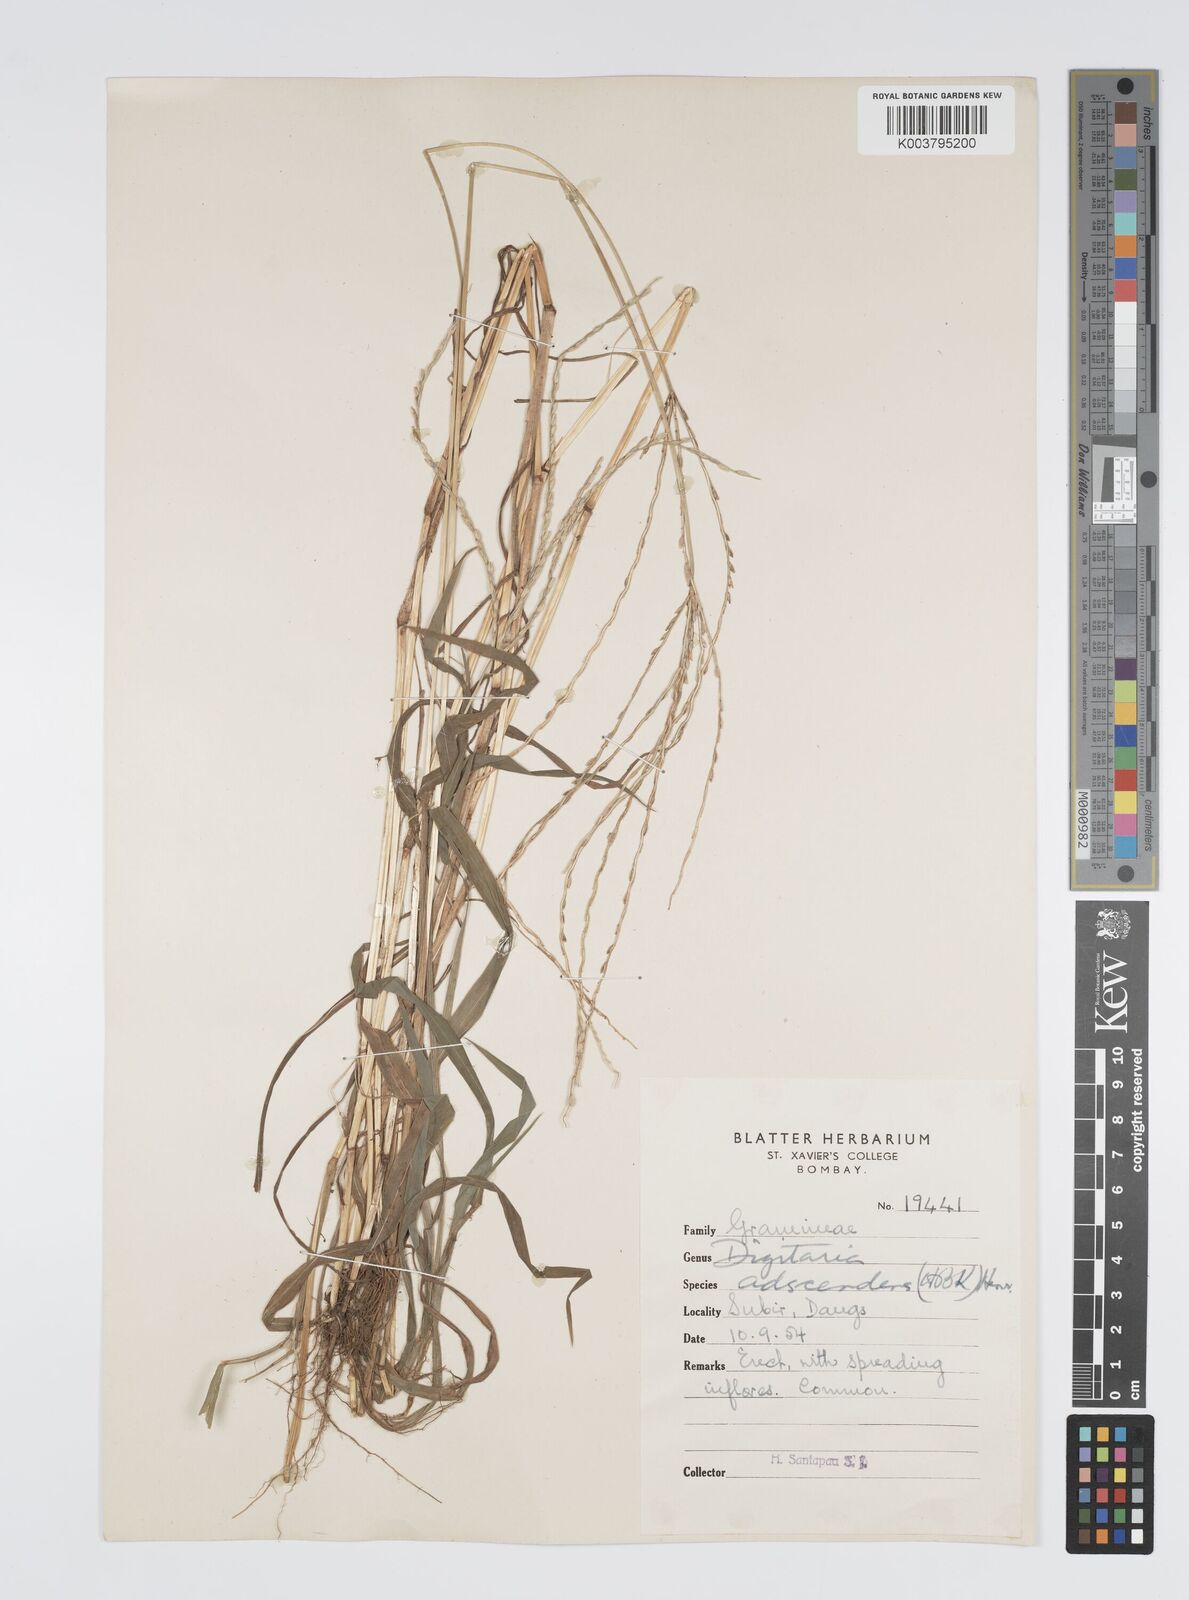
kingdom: Plantae
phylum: Tracheophyta
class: Liliopsida
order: Poales
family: Poaceae
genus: Digitaria
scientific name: Digitaria ciliaris
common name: Tropical finger-grass
